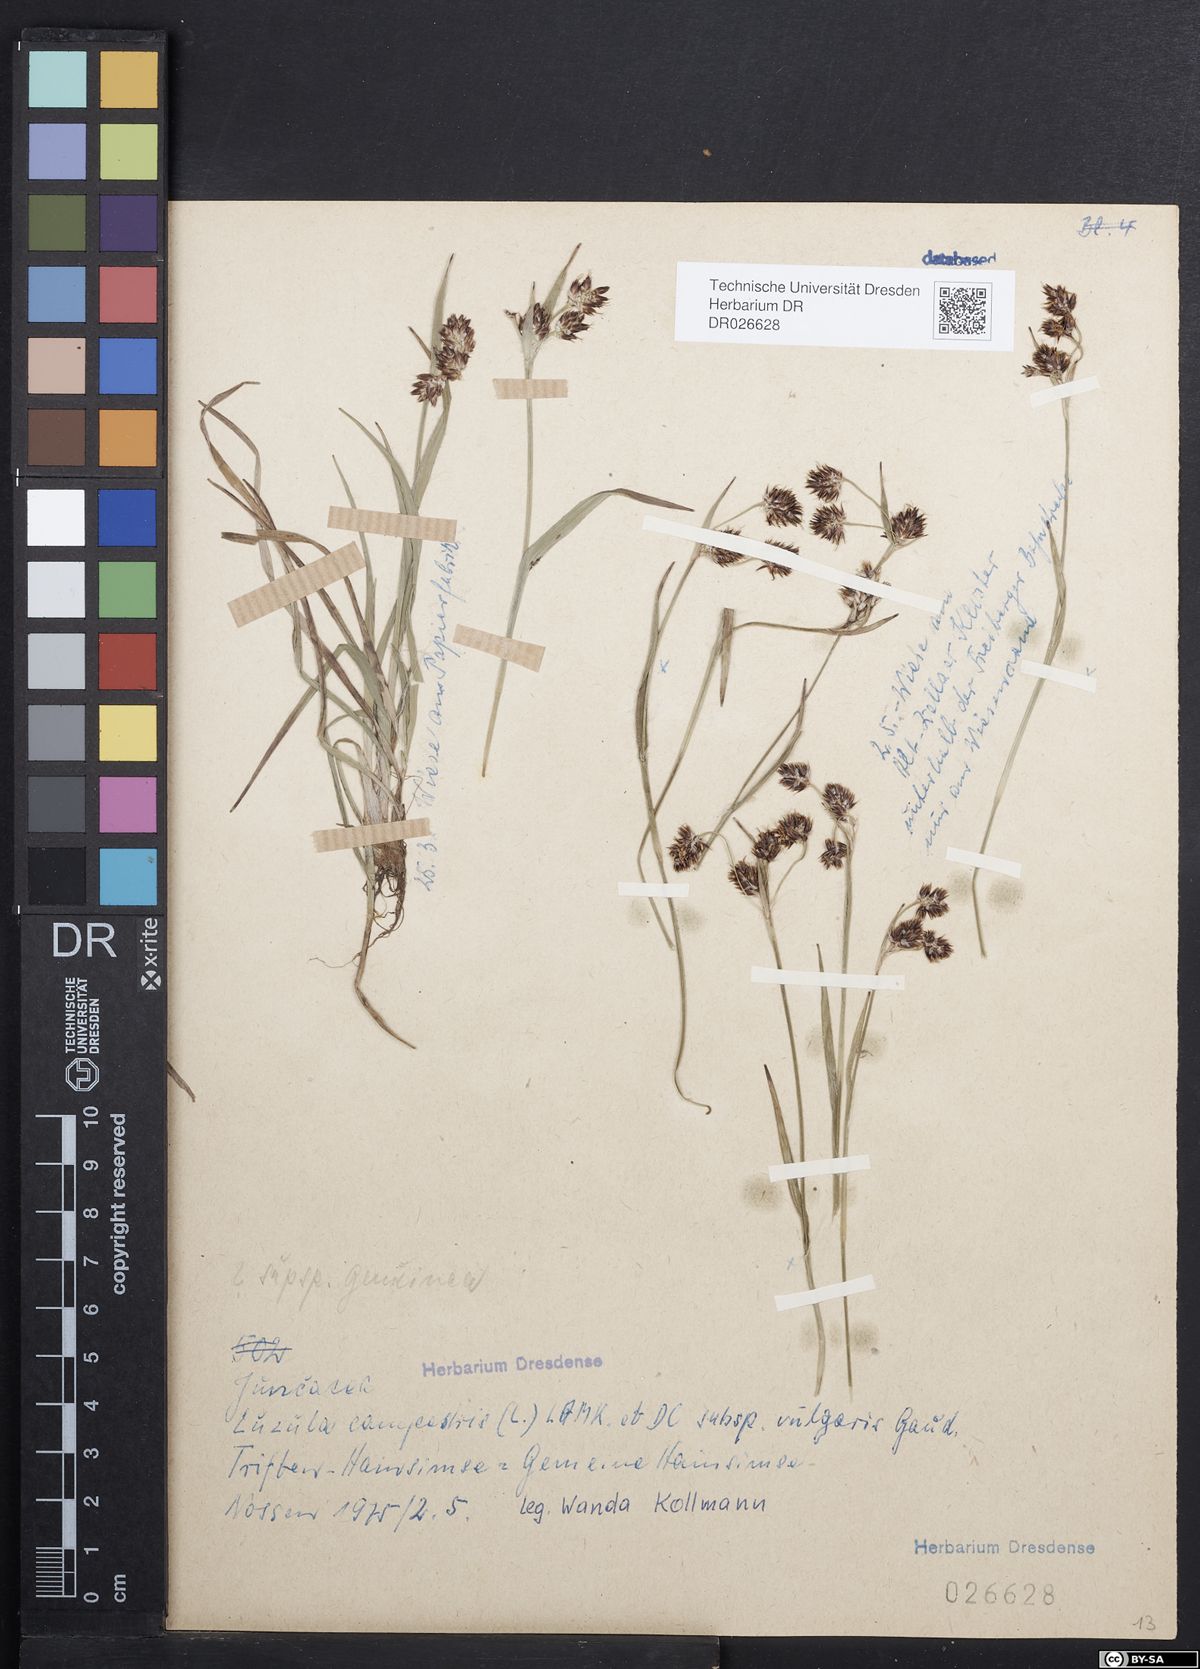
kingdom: Plantae
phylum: Tracheophyta
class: Liliopsida
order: Poales
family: Juncaceae
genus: Luzula
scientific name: Luzula campestris
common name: Field wood-rush
